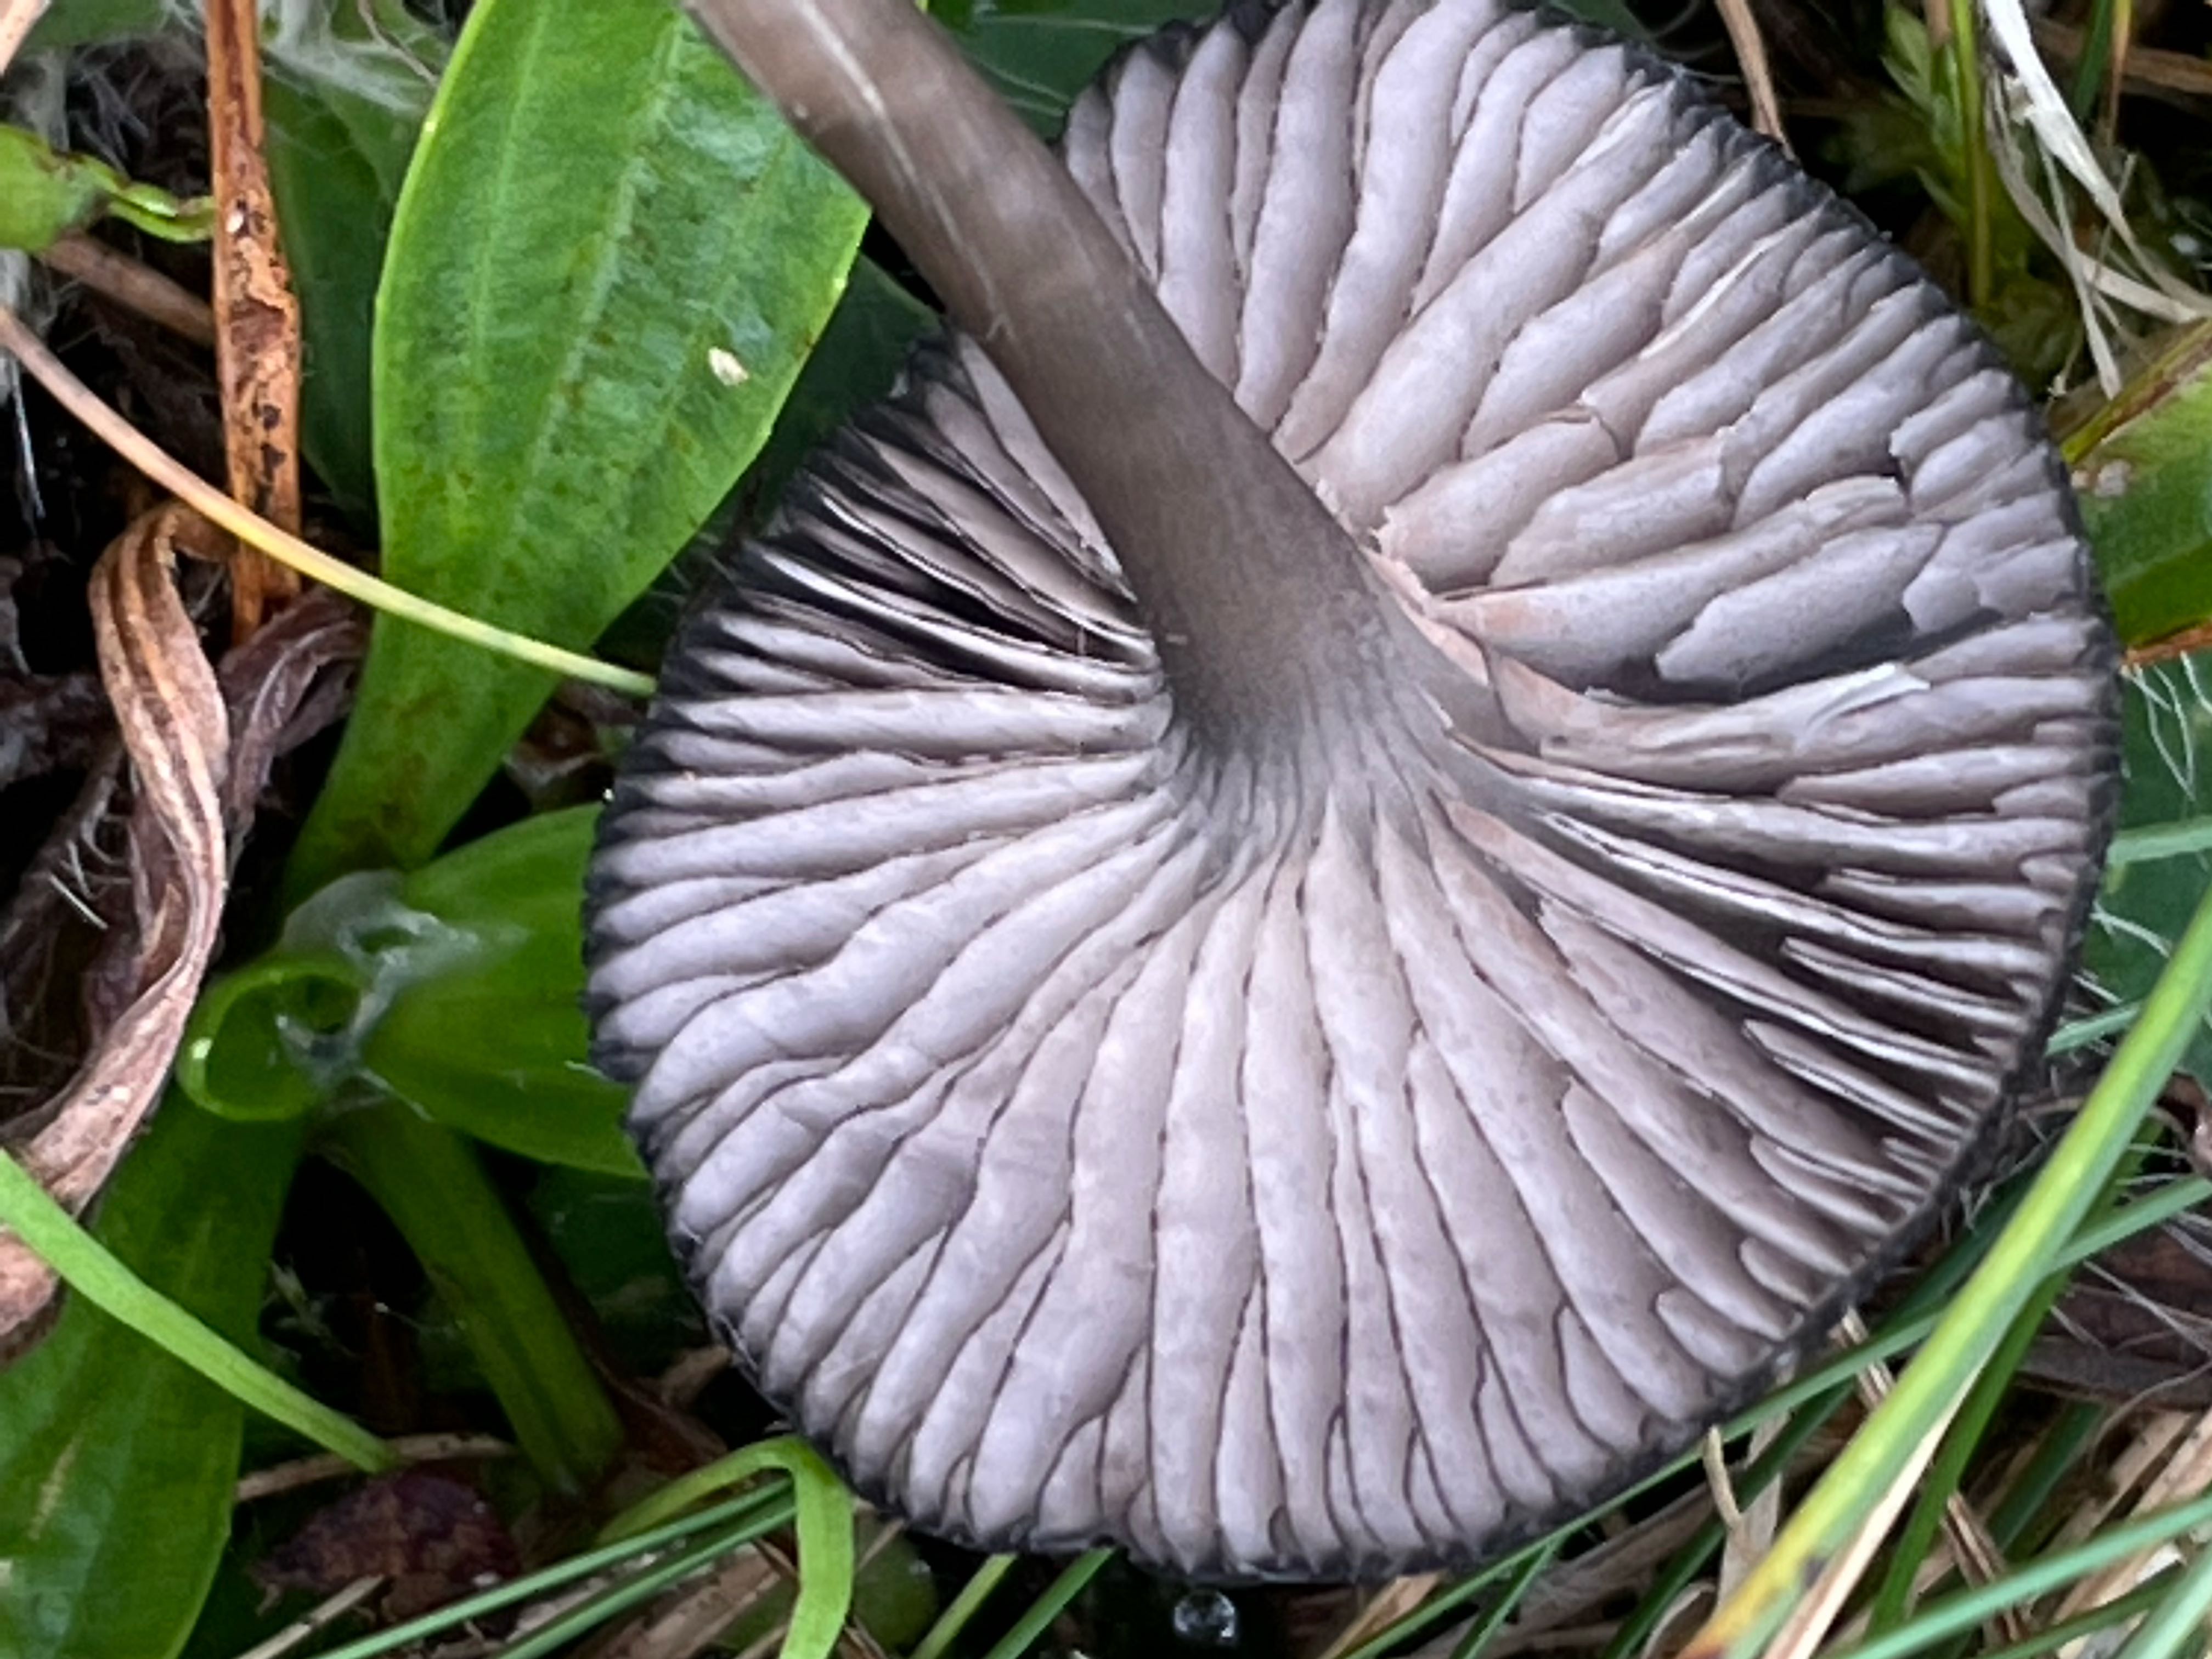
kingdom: Fungi
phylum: Basidiomycota
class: Agaricomycetes
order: Agaricales
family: Entolomataceae
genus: Entoloma
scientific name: Entoloma
